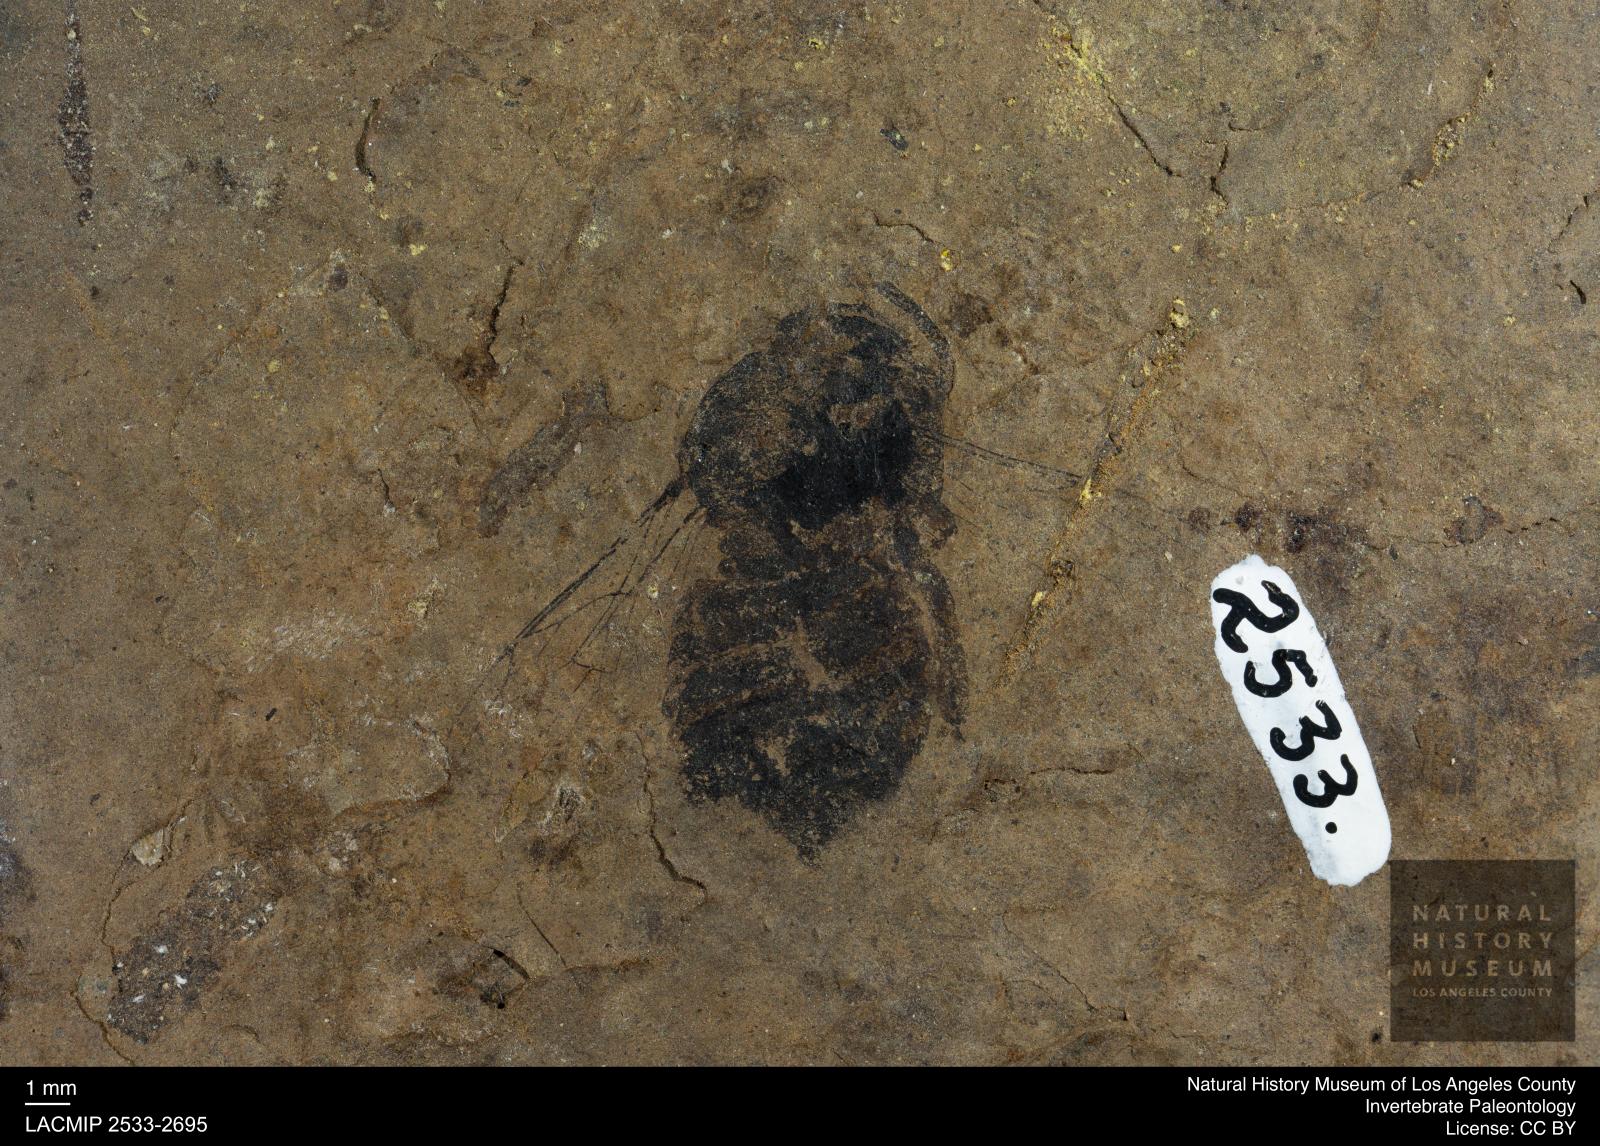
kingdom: Animalia
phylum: Arthropoda
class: Insecta
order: Hymenoptera
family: Apidae
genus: Apis
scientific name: Apis henshawi
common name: Henshaw's honey bee
